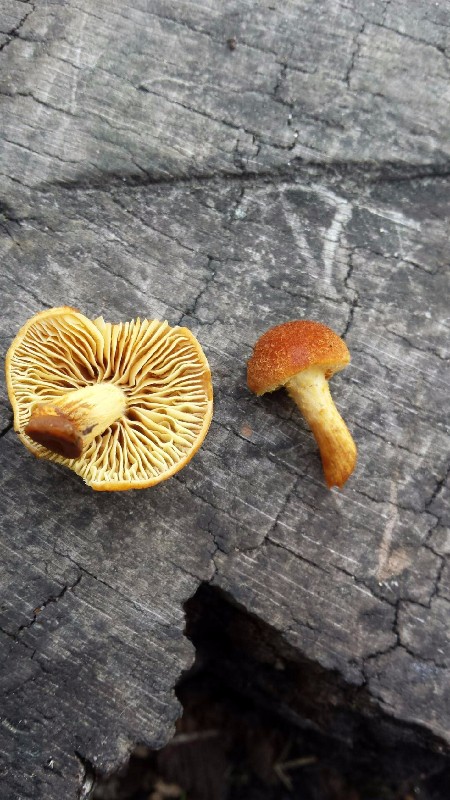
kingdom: Fungi
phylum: Basidiomycota
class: Agaricomycetes
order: Agaricales
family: Tubariaceae
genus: Flammulaster
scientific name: Flammulaster limulatus
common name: gylden grynskælhat
